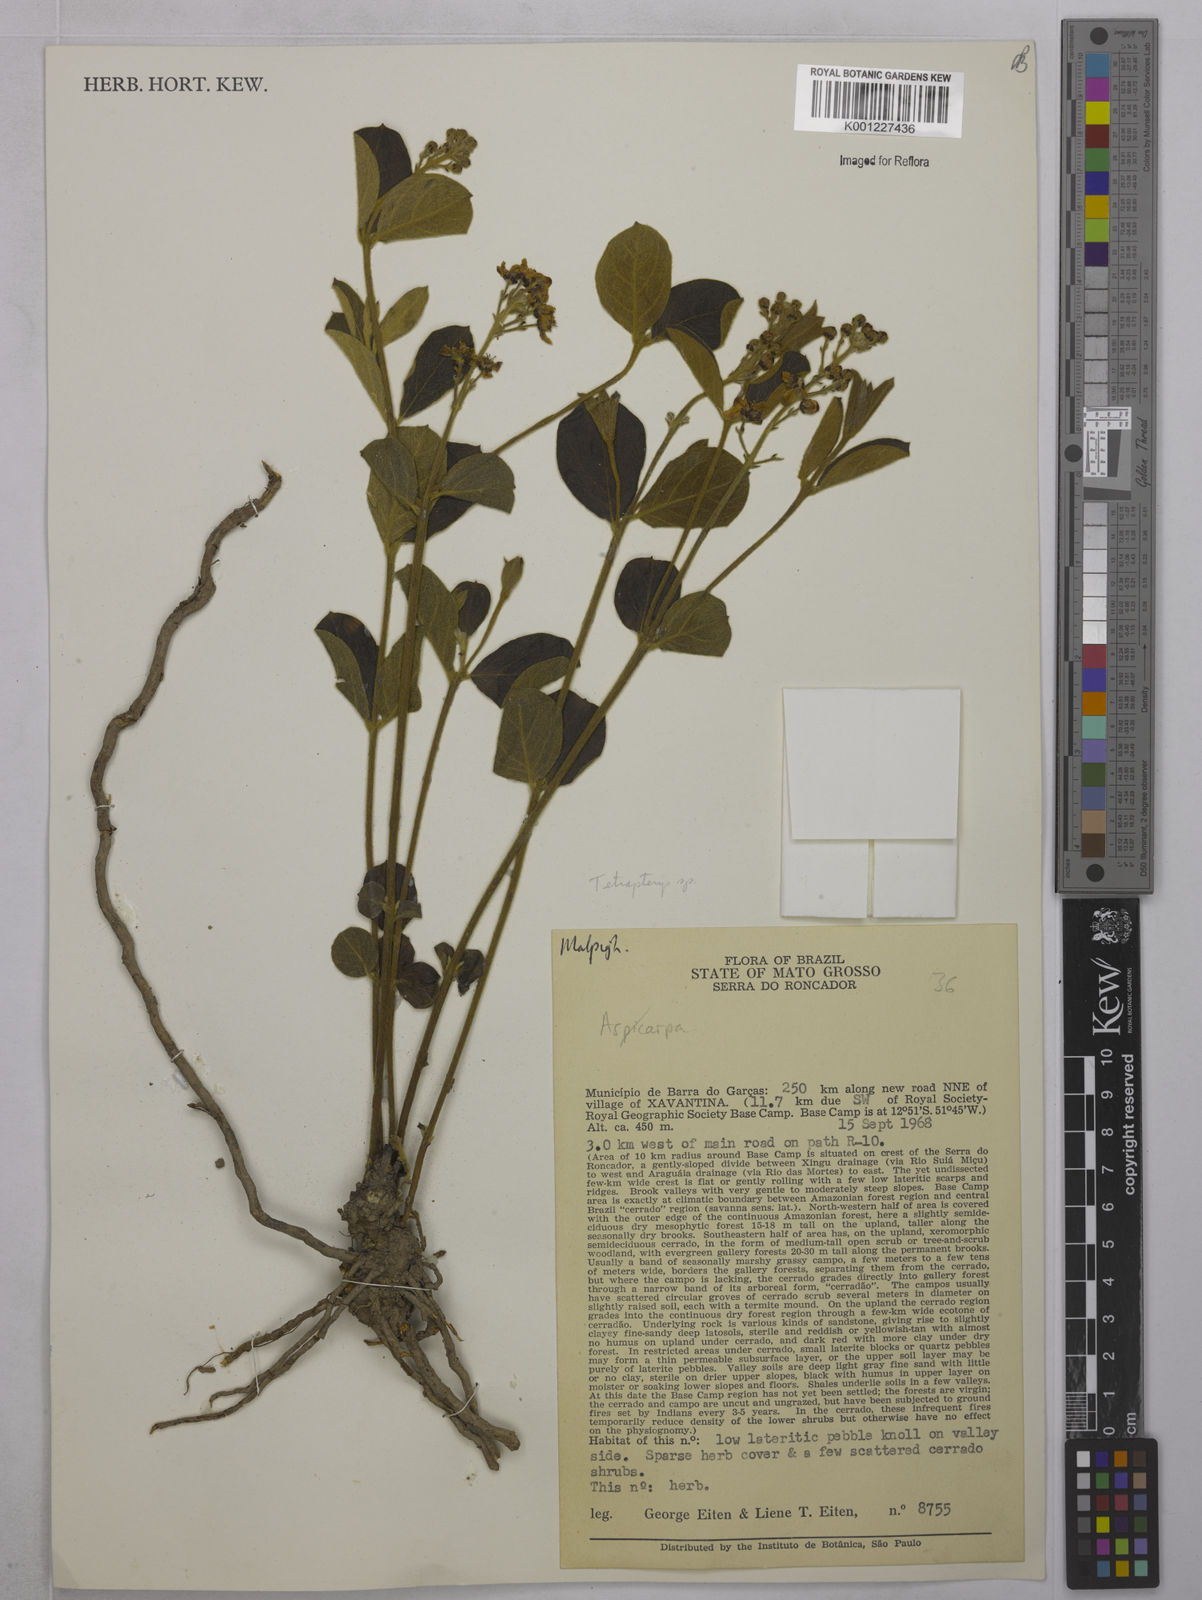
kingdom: Plantae
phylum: Tracheophyta
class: Magnoliopsida
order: Malpighiales
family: Malpighiaceae
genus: Tetrapterys
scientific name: Tetrapterys
